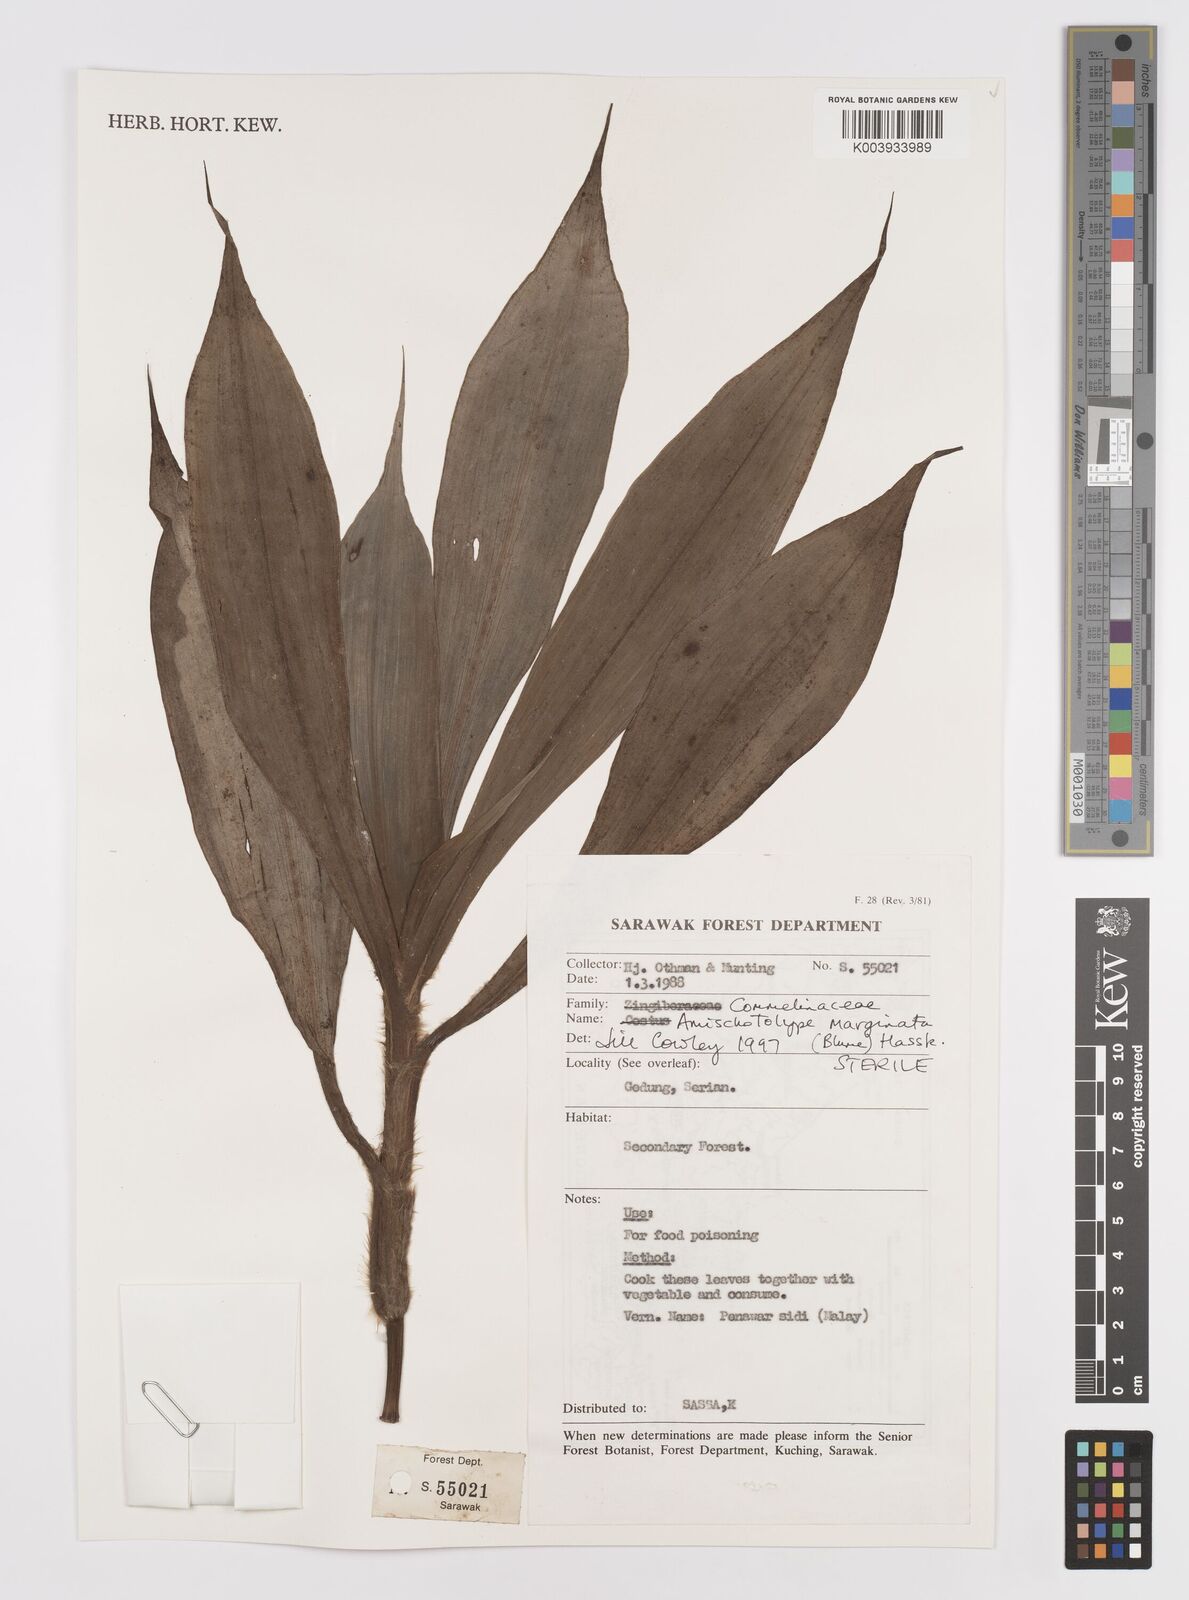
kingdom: Plantae
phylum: Tracheophyta
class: Liliopsida
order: Commelinales
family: Commelinaceae
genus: Amischotolype
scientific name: Amischotolype marginata
